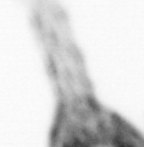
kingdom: Animalia
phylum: Arthropoda
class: Copepoda
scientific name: Copepoda
